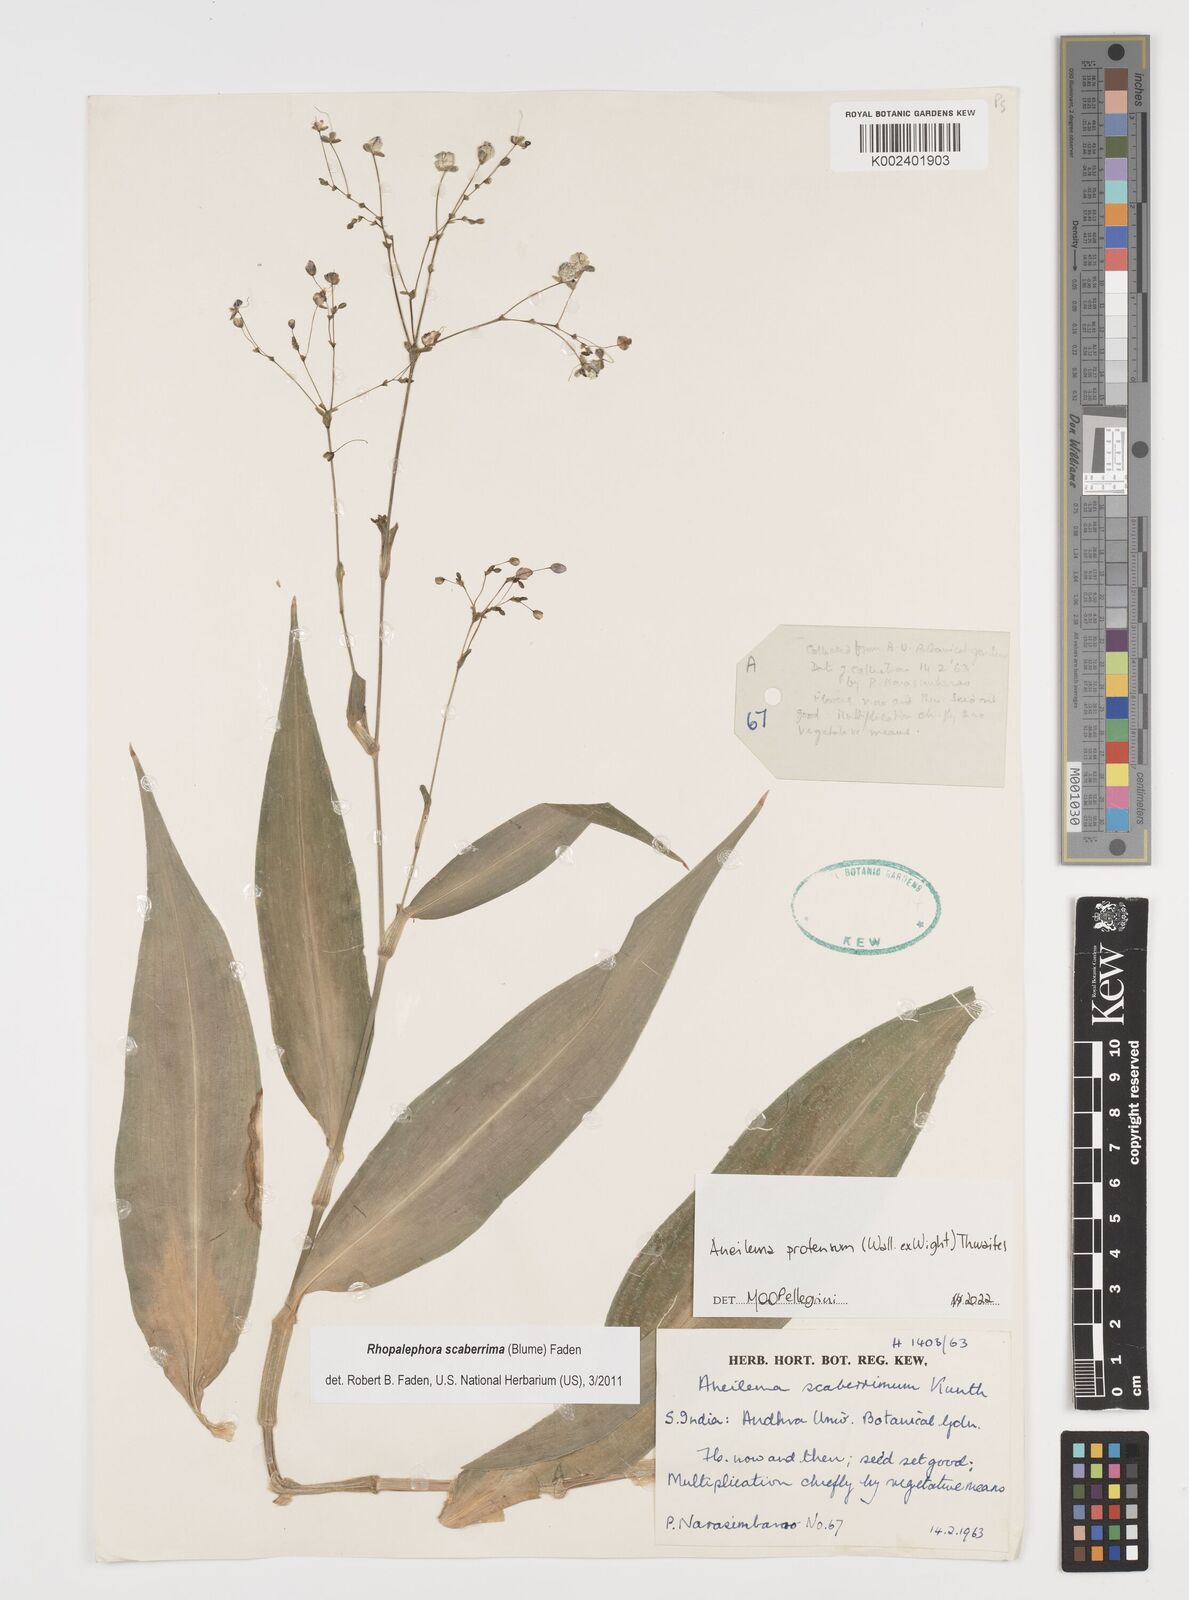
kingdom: Plantae
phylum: Tracheophyta
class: Liliopsida
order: Commelinales
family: Commelinaceae
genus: Rhopalephora
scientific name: Rhopalephora
